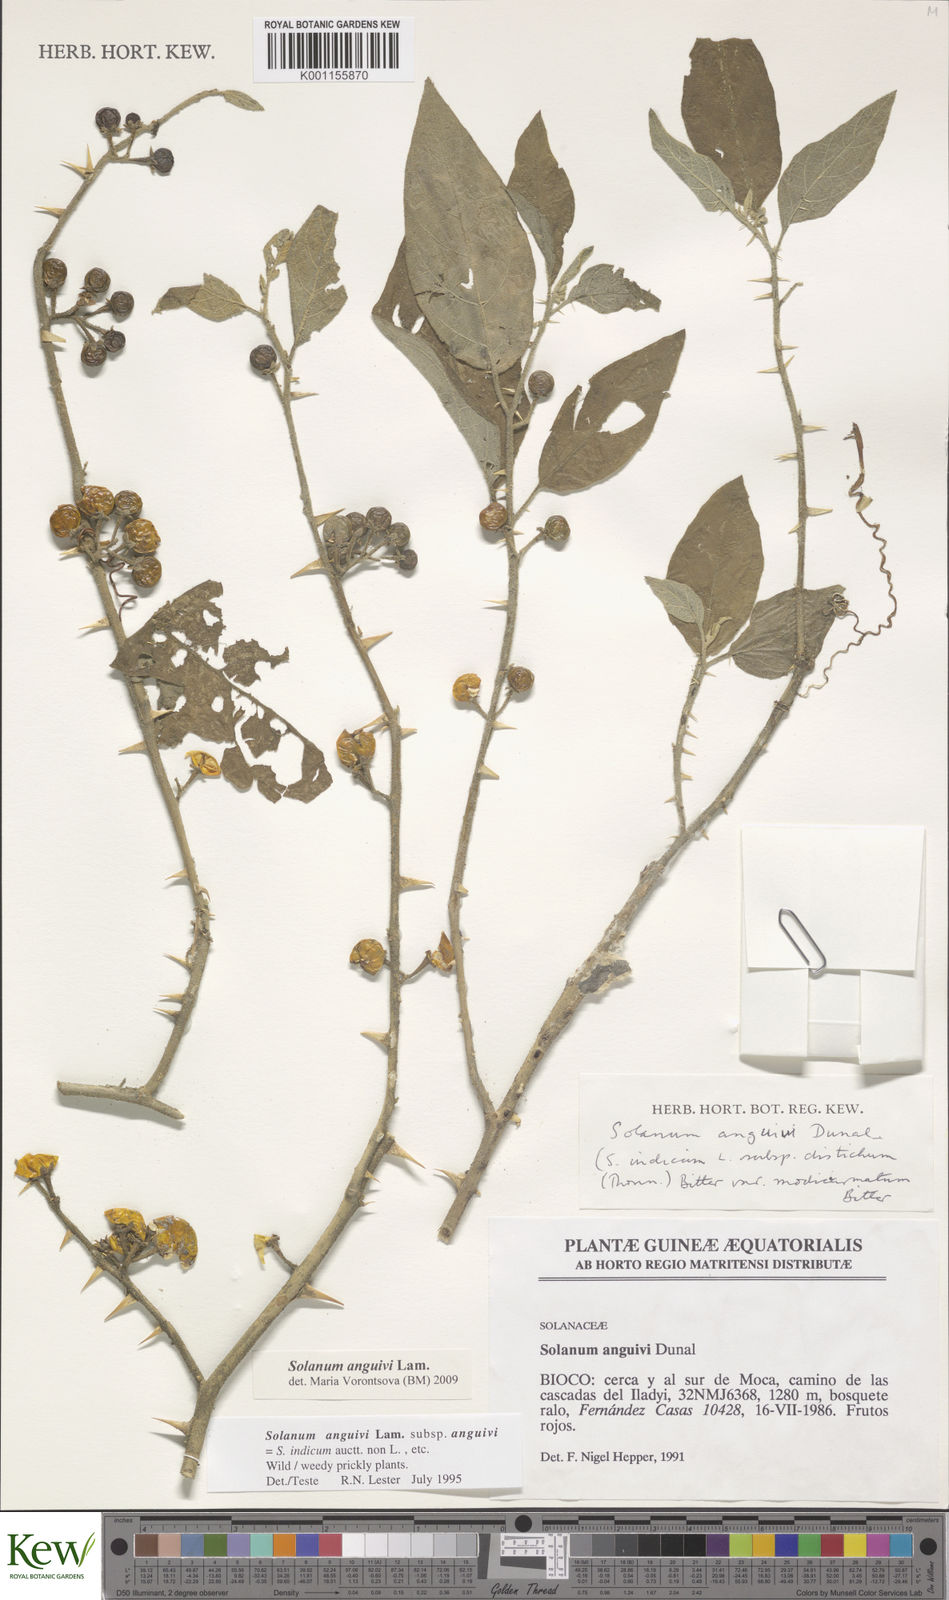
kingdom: Plantae
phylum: Tracheophyta
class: Magnoliopsida
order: Solanales
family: Solanaceae
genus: Solanum
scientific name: Solanum anguivi
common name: Forest bitterberry
